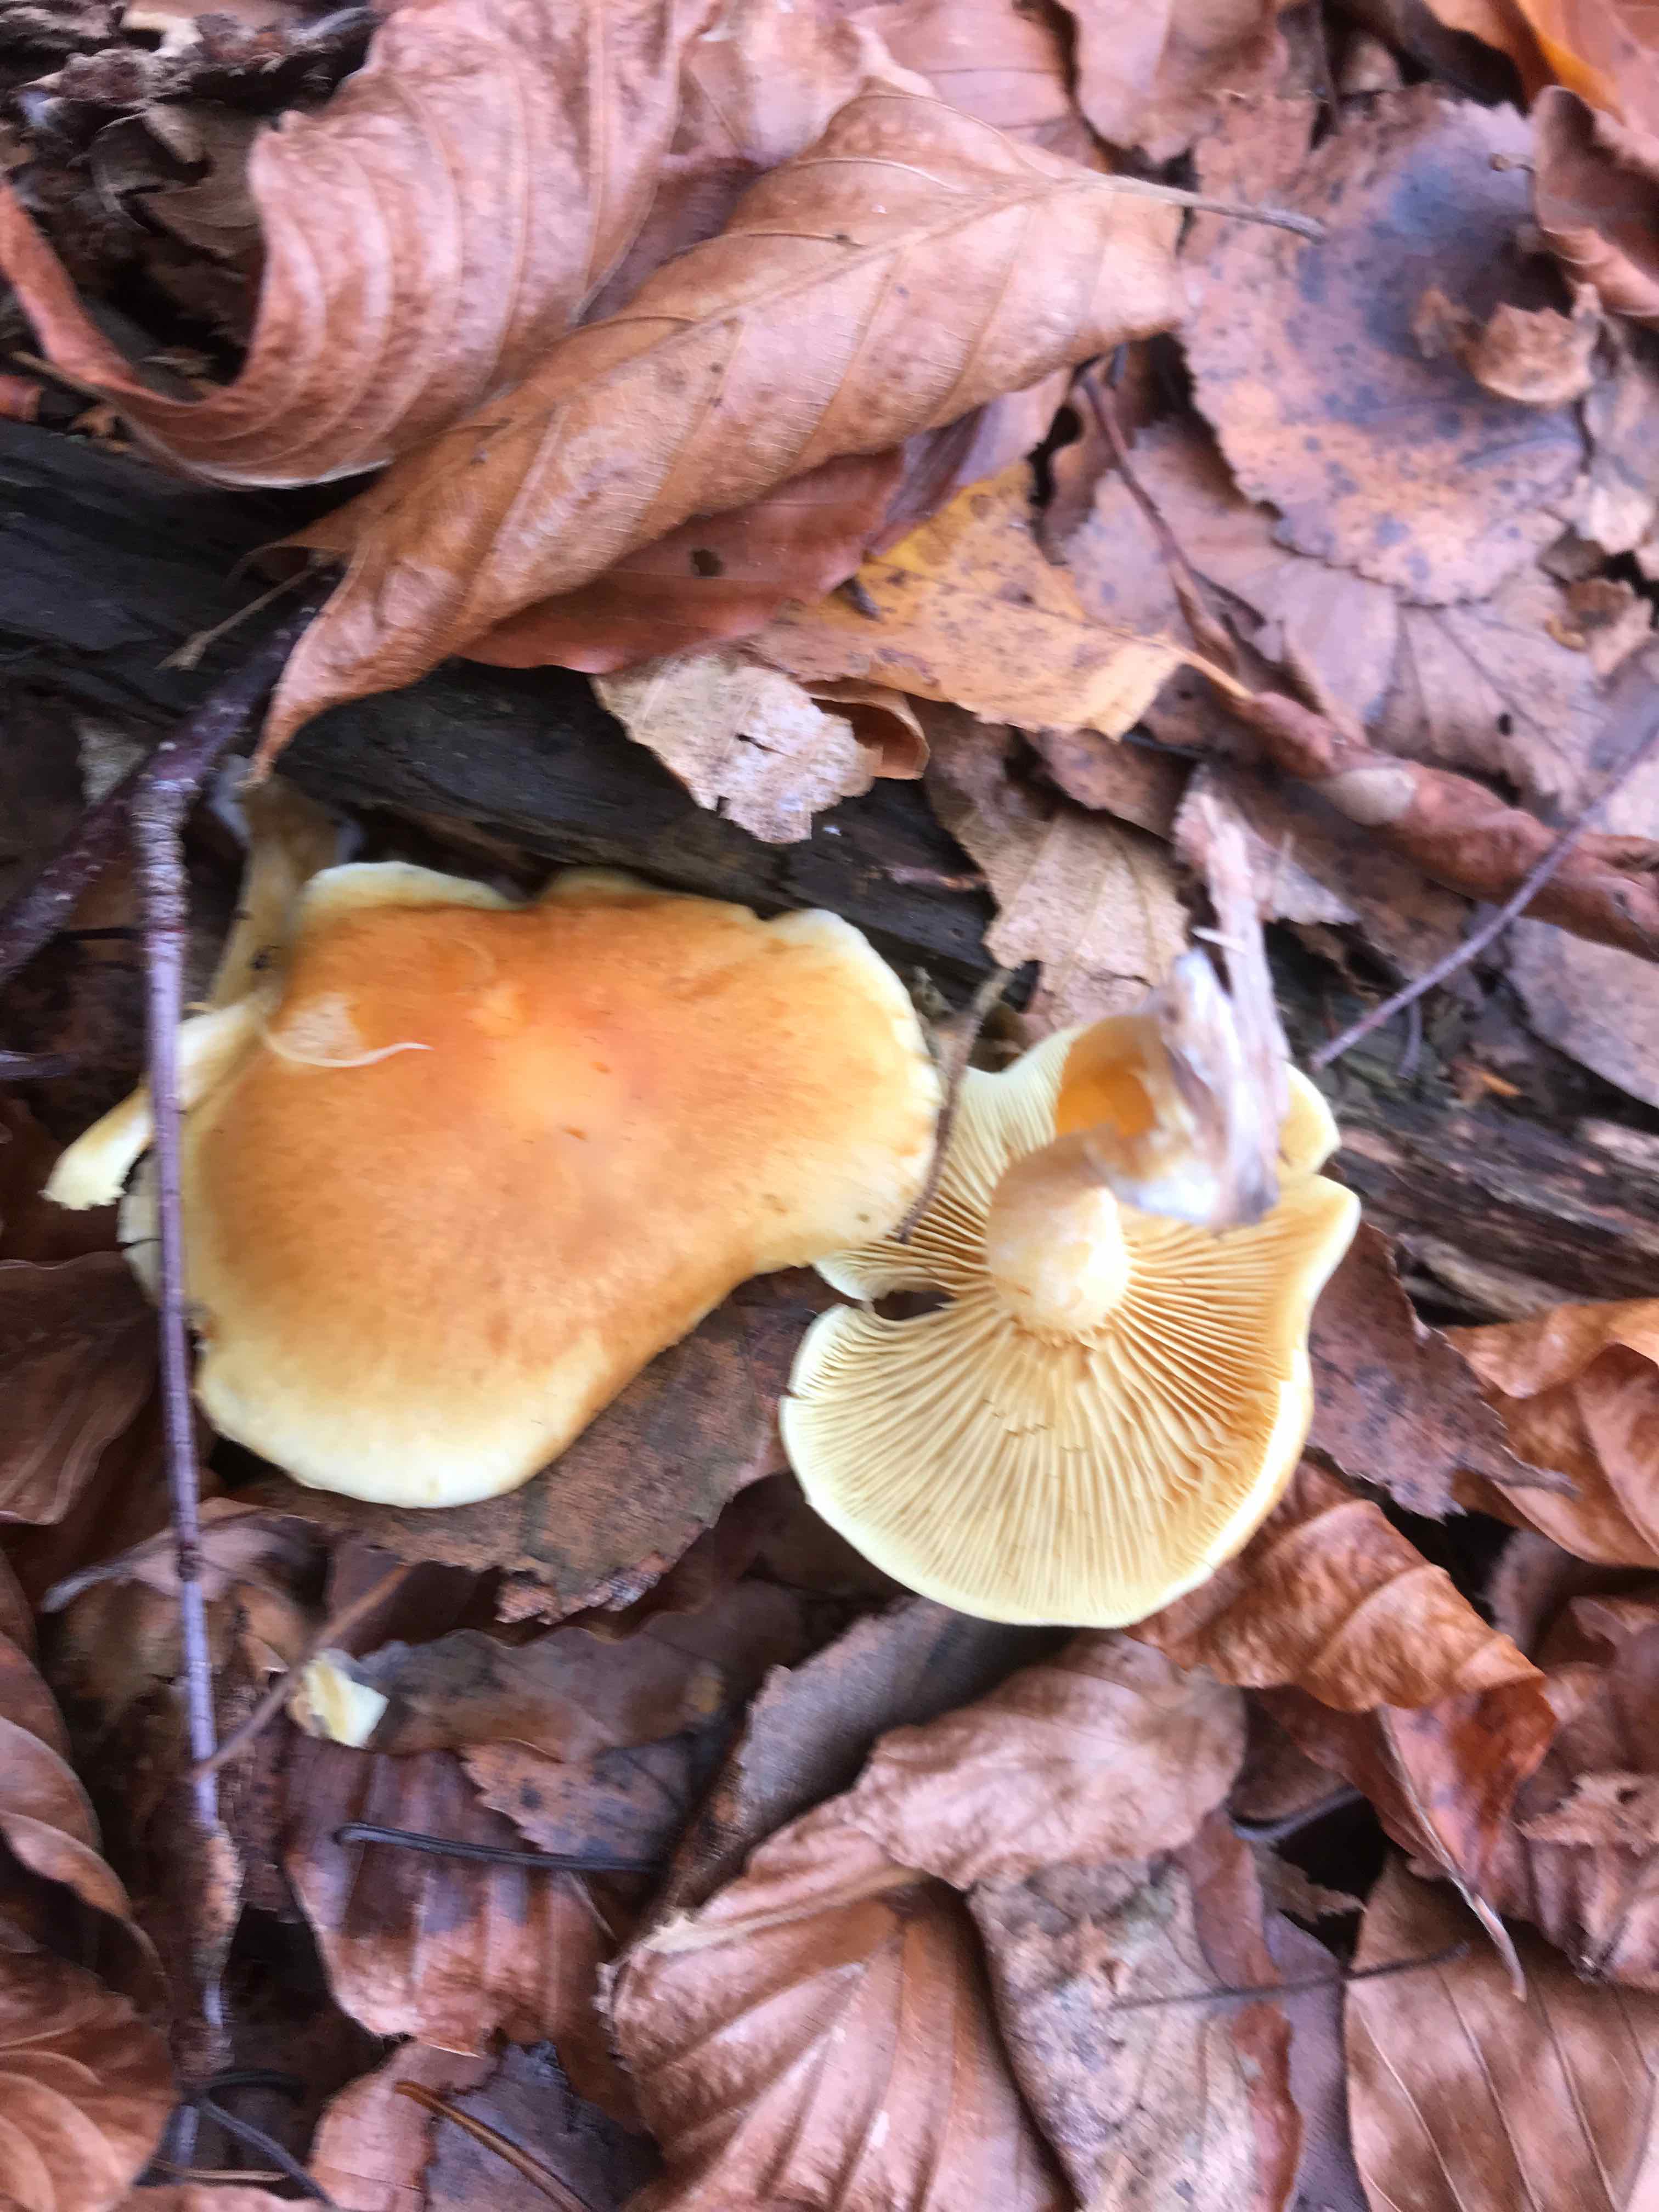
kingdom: Fungi
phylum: Basidiomycota
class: Agaricomycetes
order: Agaricales
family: Hymenogastraceae
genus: Gymnopilus
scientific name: Gymnopilus penetrans
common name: plettet flammehat
